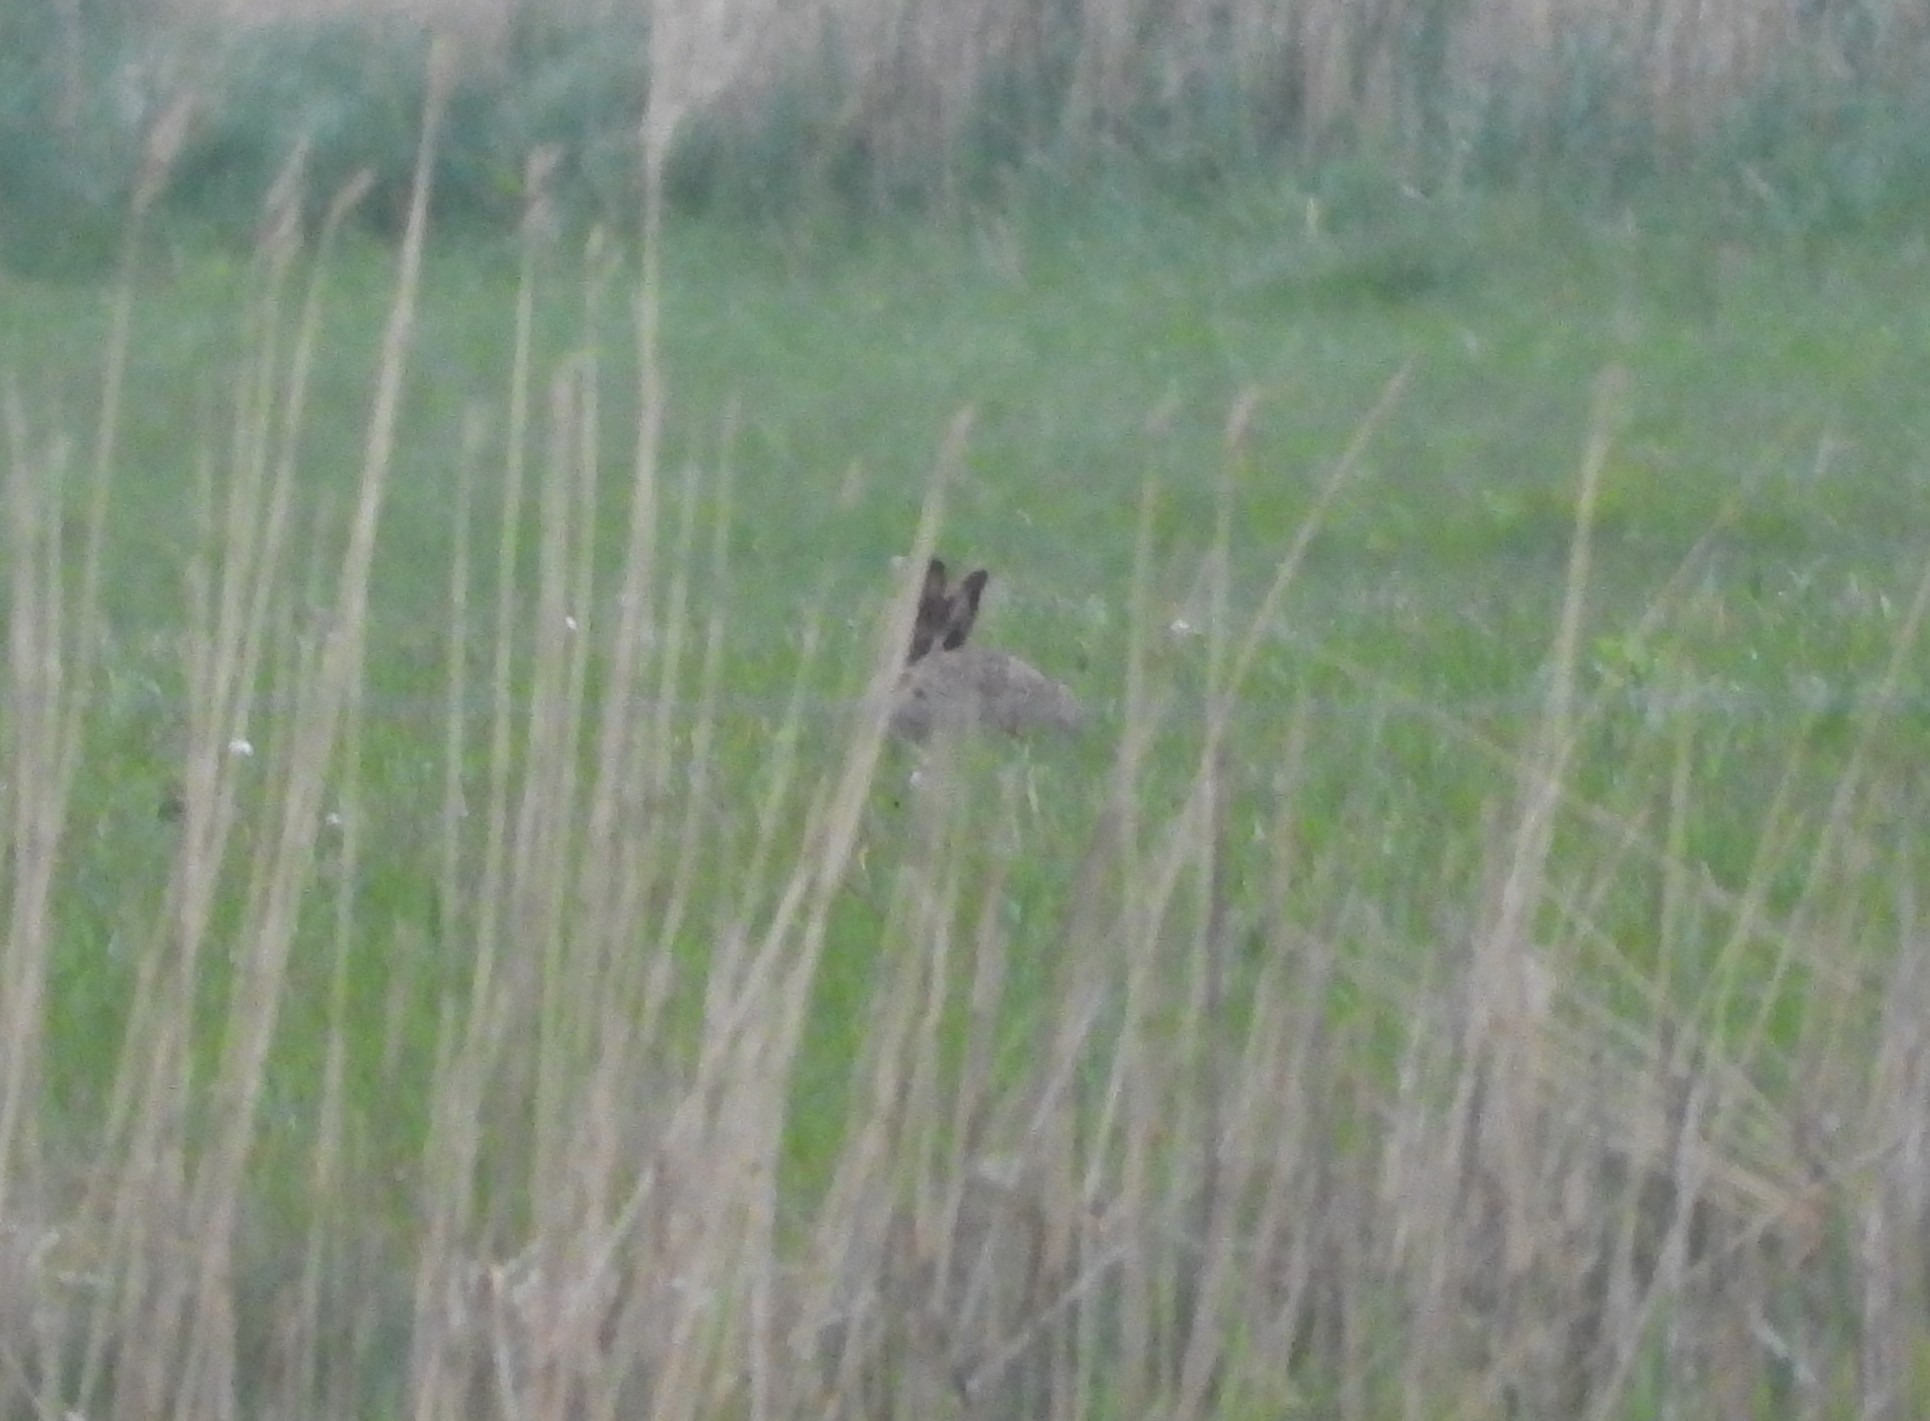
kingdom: Animalia
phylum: Chordata
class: Mammalia
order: Lagomorpha
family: Leporidae
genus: Lepus
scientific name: Lepus europaeus
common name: Hare
